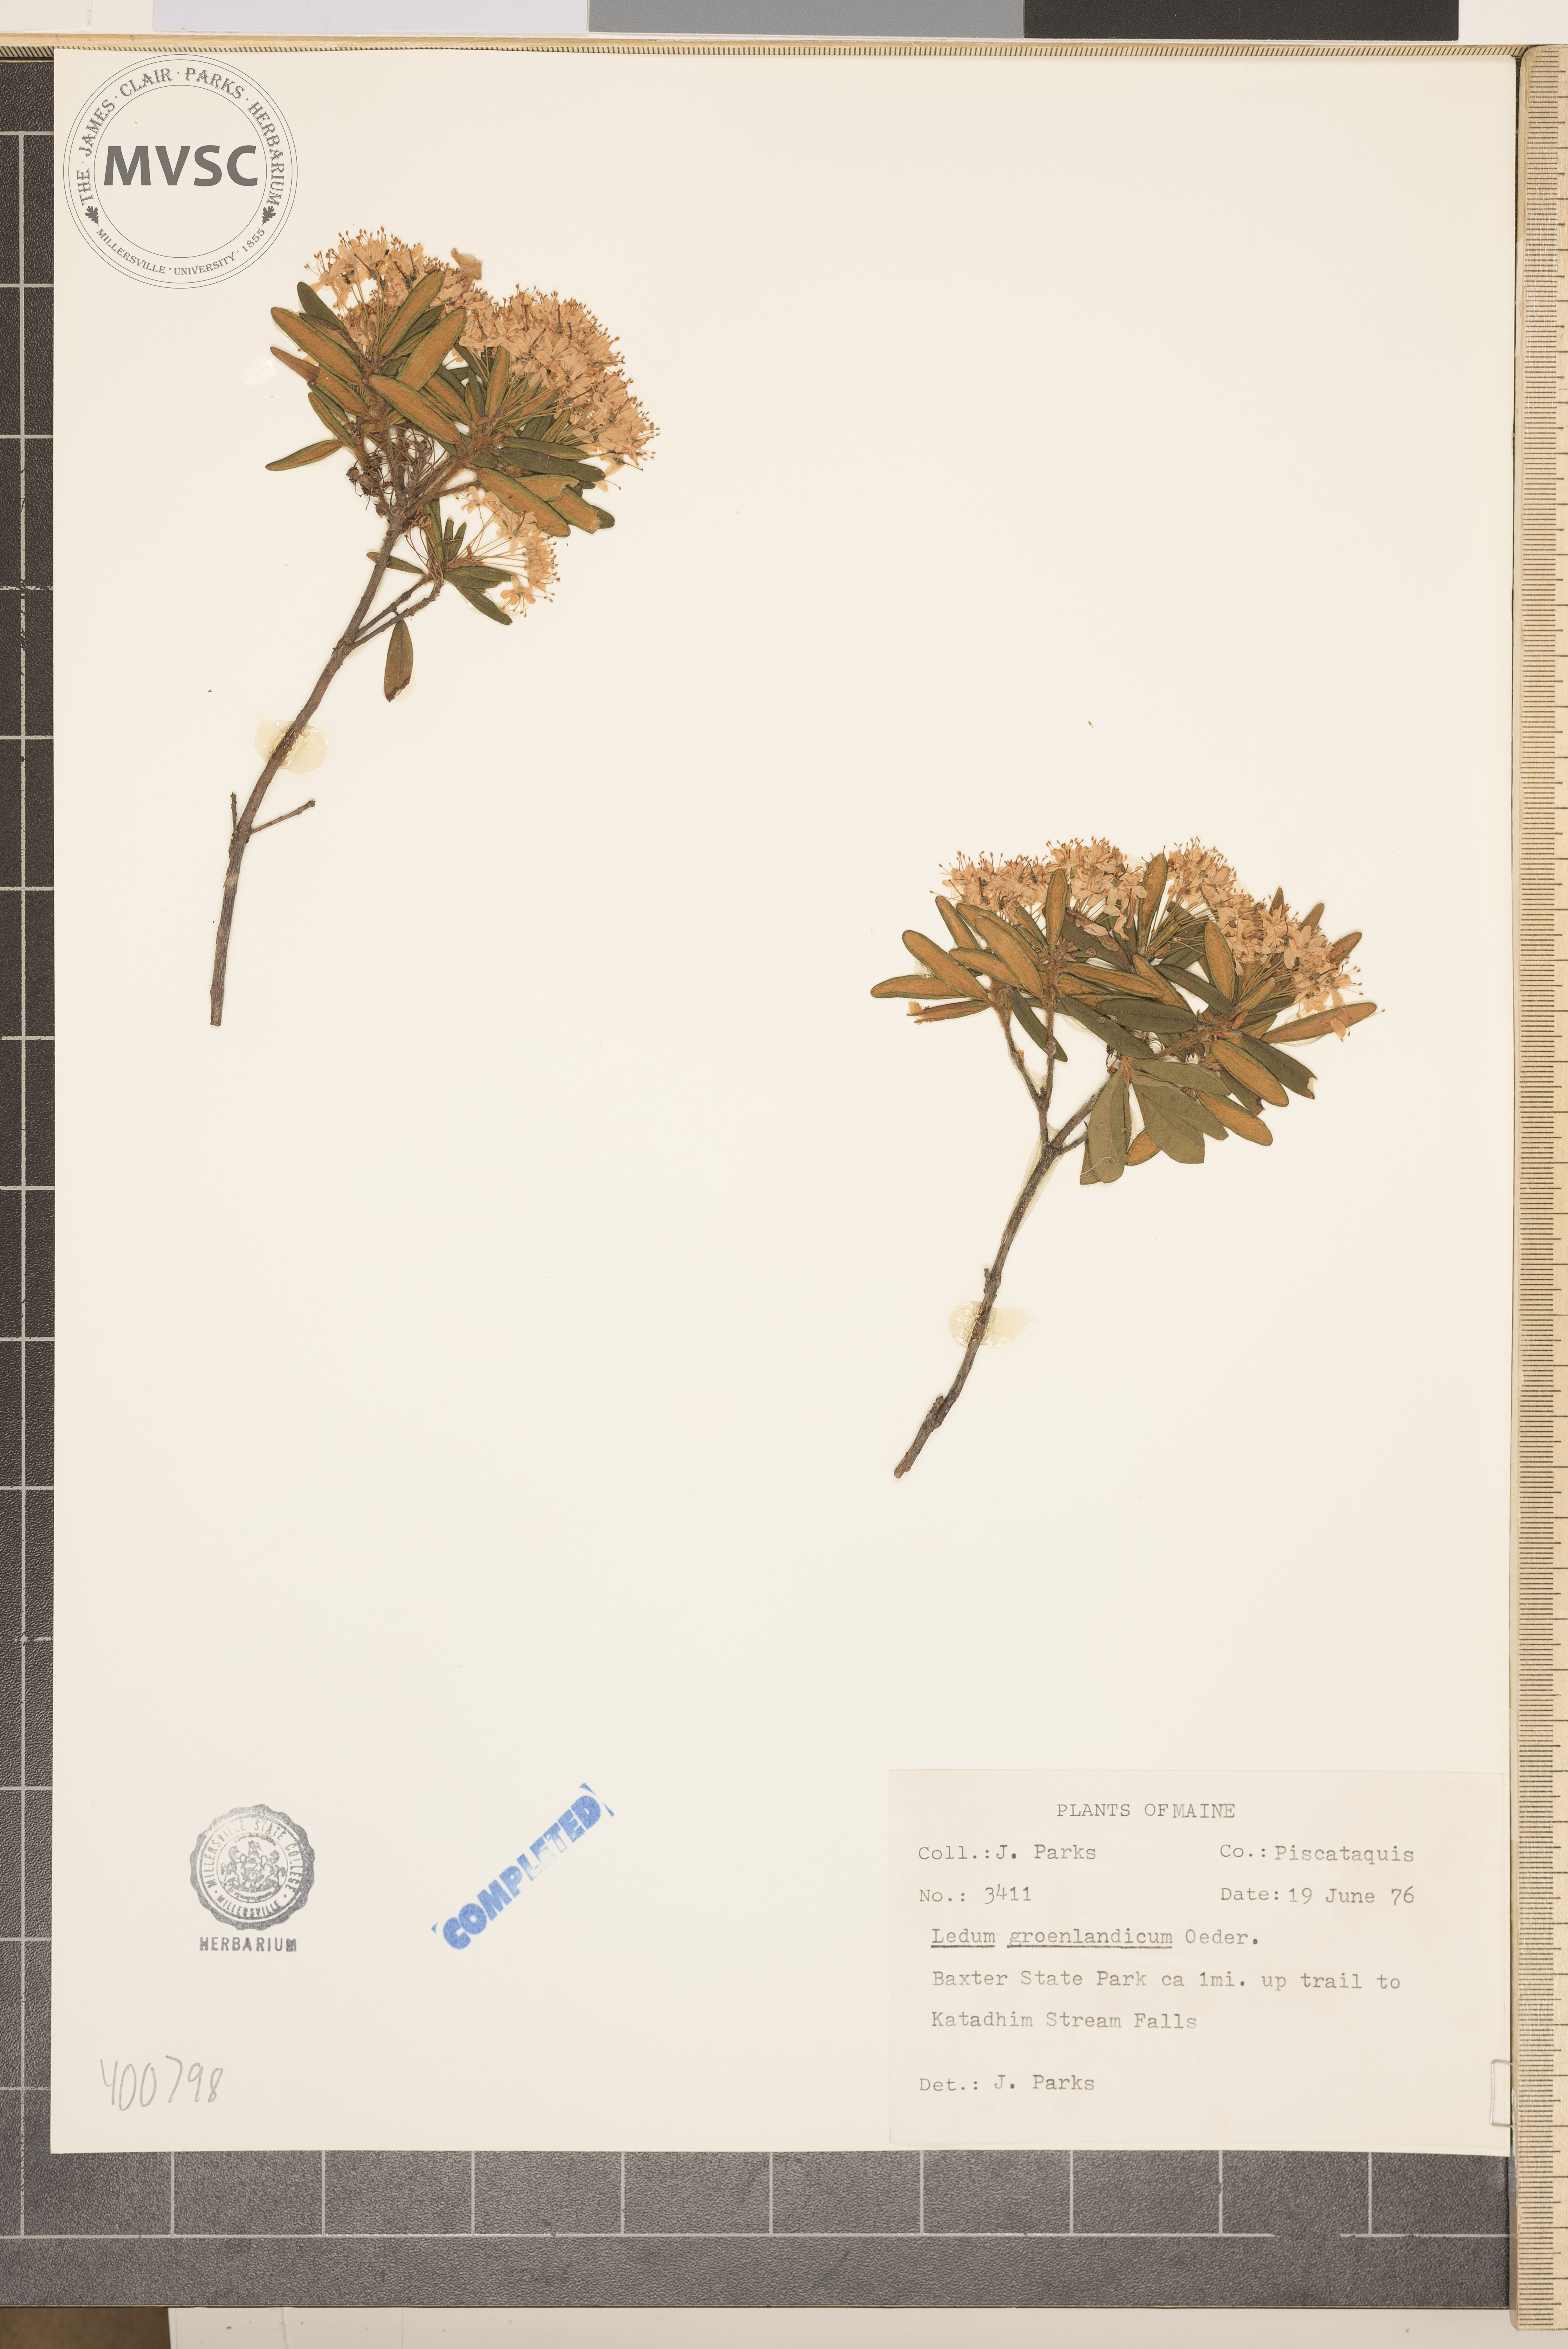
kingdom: Plantae
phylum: Tracheophyta
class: Magnoliopsida
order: Ericales
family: Ericaceae
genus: Rhododendron
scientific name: Rhododendron groenlandicum
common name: Bog labrador tea
